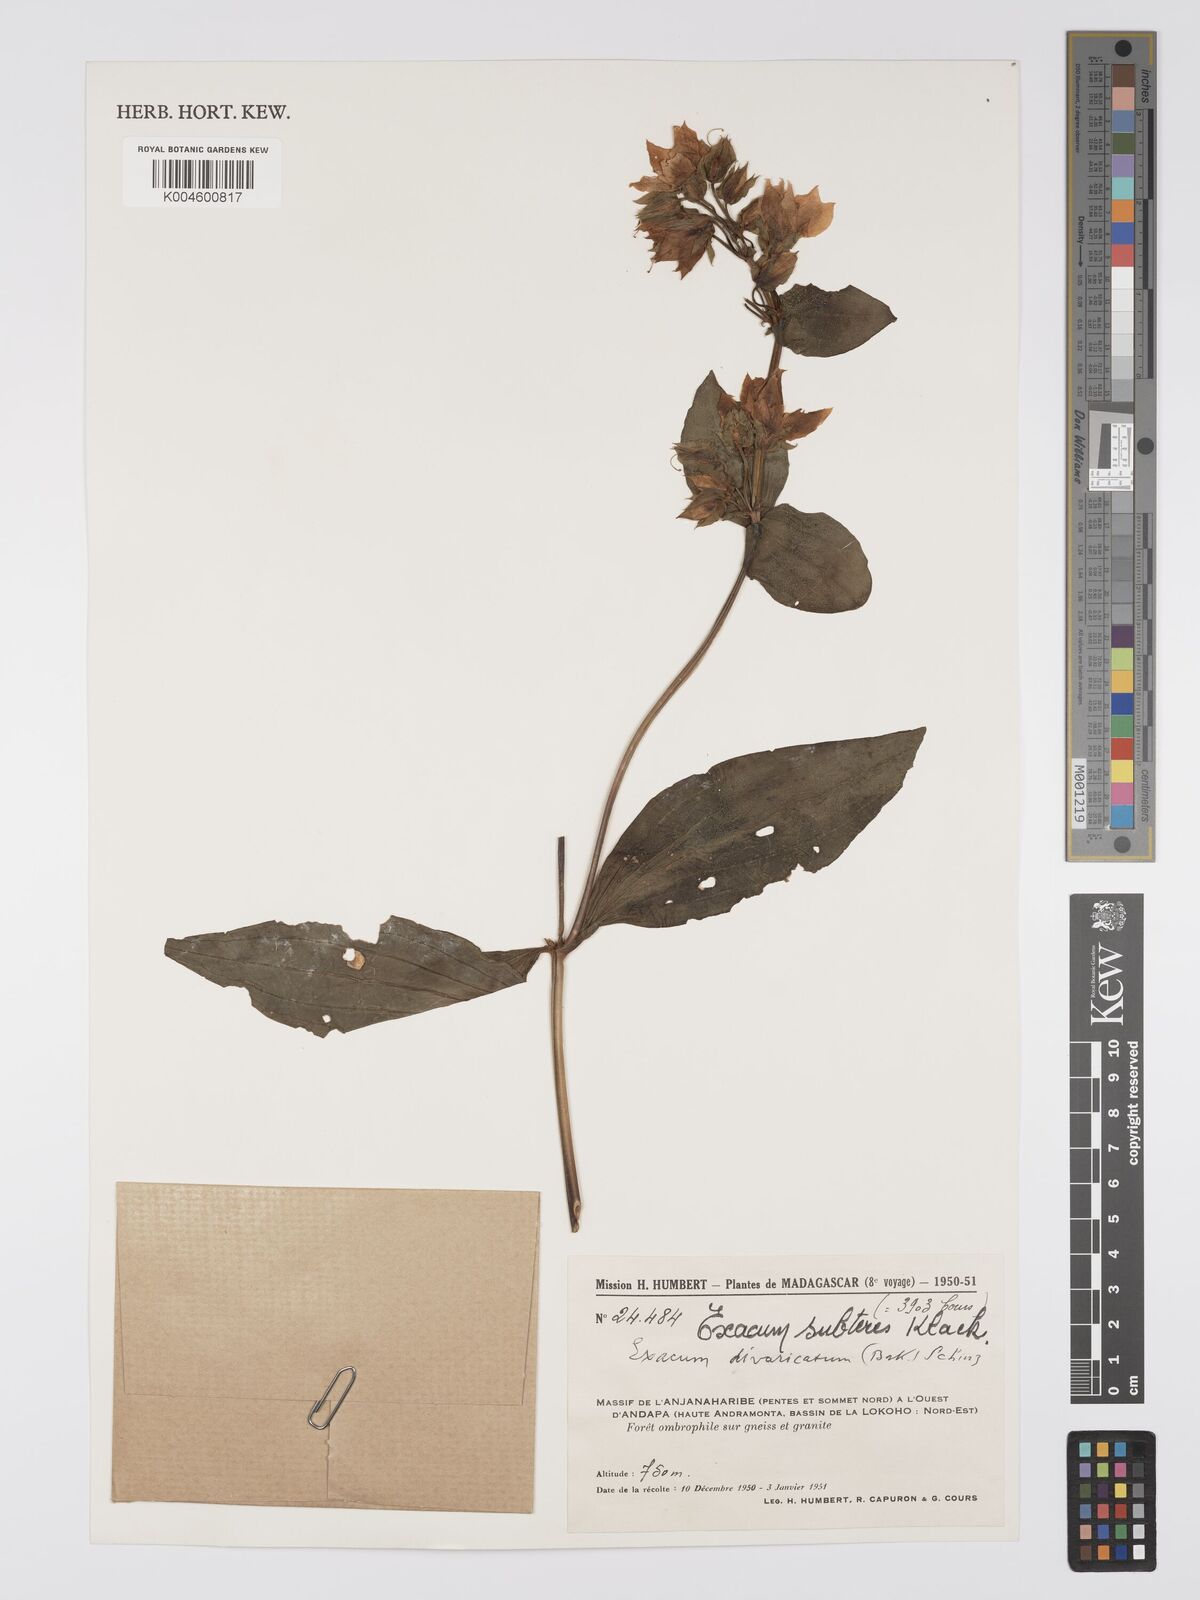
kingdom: Plantae
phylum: Tracheophyta
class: Magnoliopsida
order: Gentianales
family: Gentianaceae
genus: Exacum
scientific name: Exacum subteres
